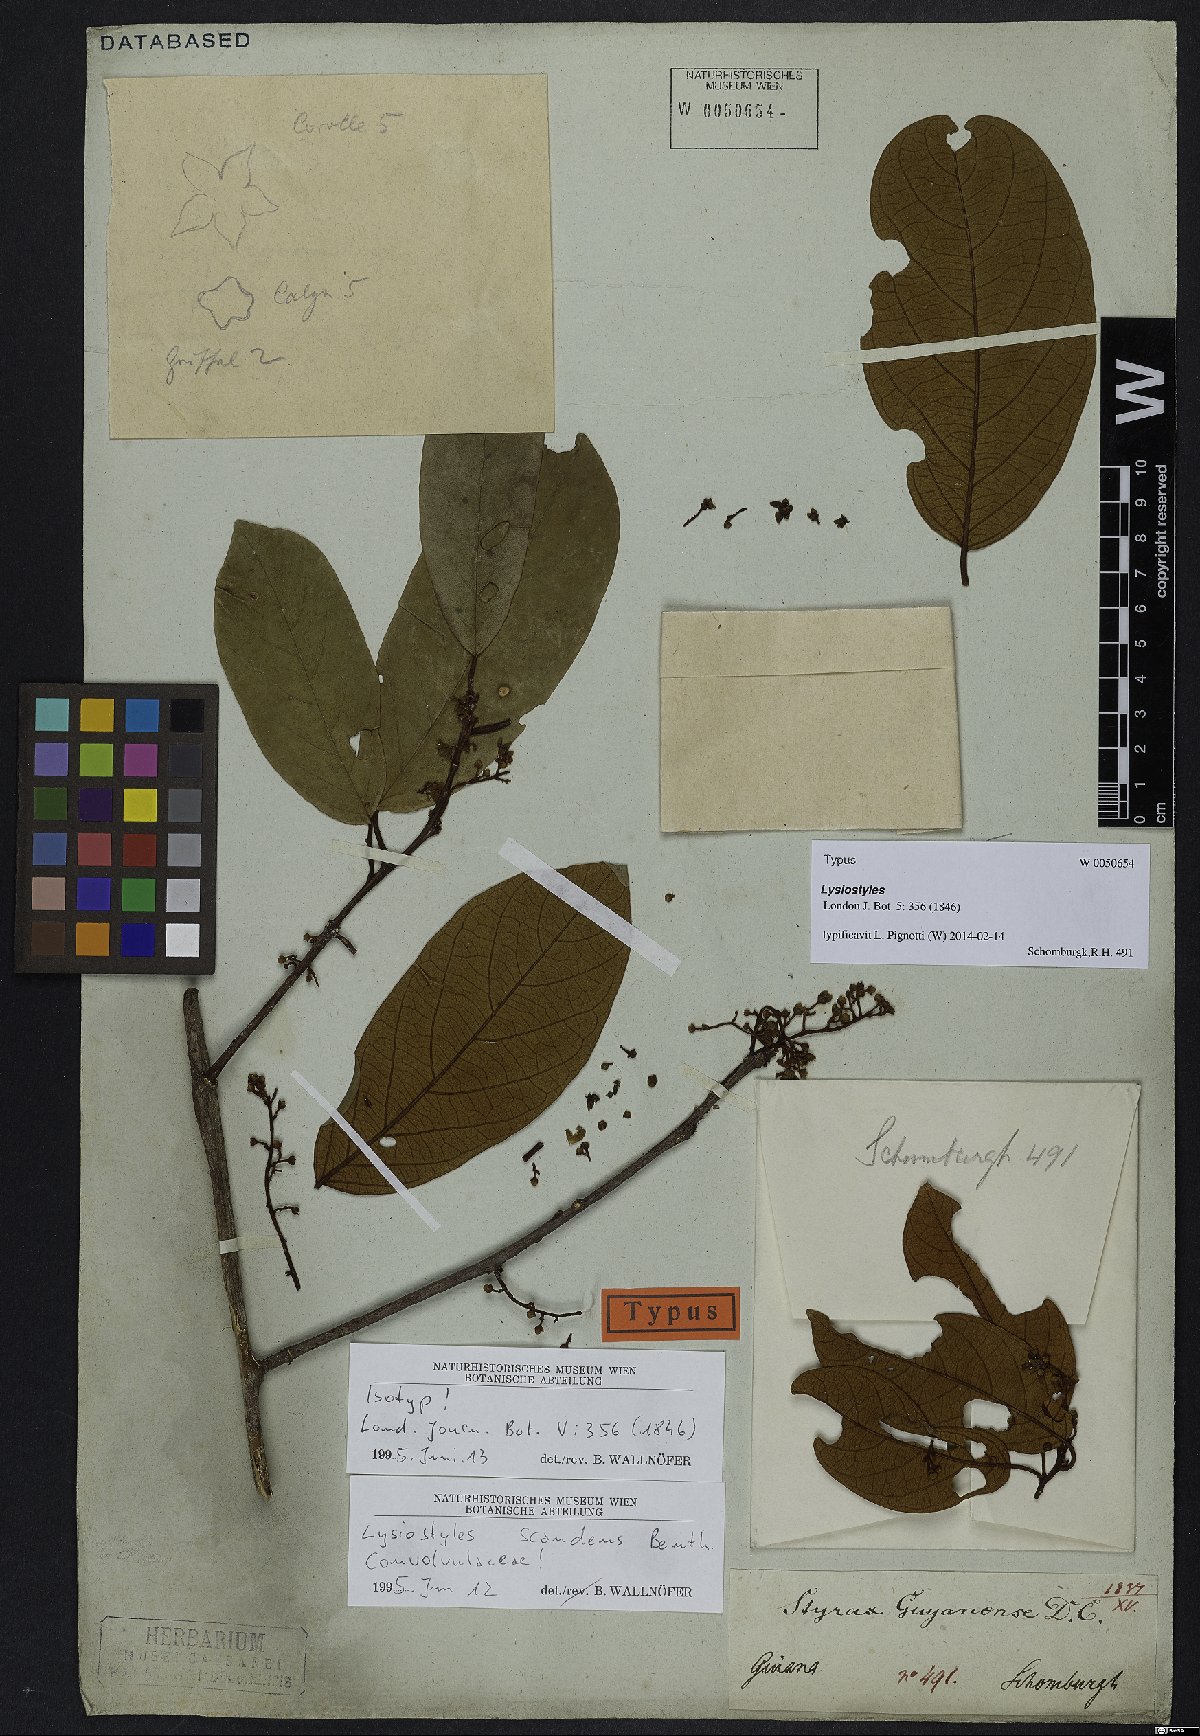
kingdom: Plantae
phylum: Tracheophyta
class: Magnoliopsida
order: Solanales
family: Convolvulaceae
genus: Lysiostyles
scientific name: Lysiostyles scandens
